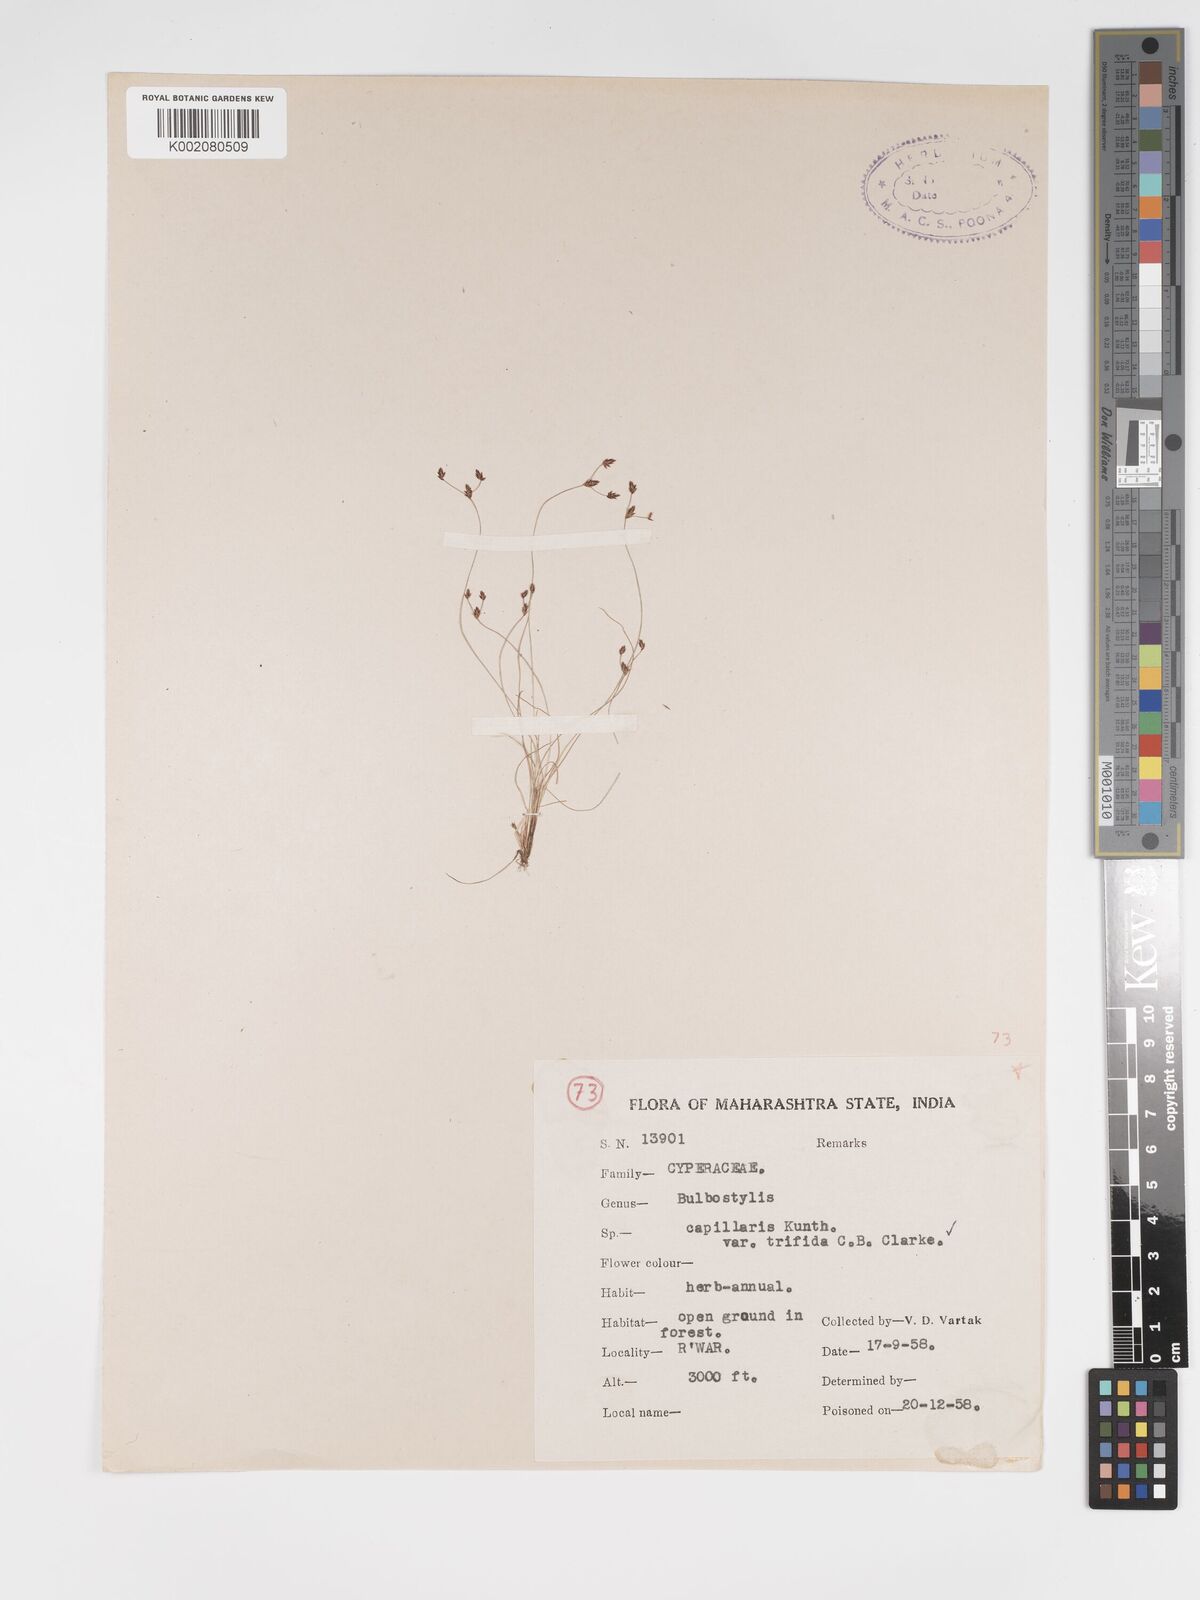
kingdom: Plantae
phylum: Tracheophyta
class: Liliopsida
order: Poales
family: Cyperaceae
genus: Bulbostylis
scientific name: Bulbostylis capillaris
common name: Densetuft hairsedge
